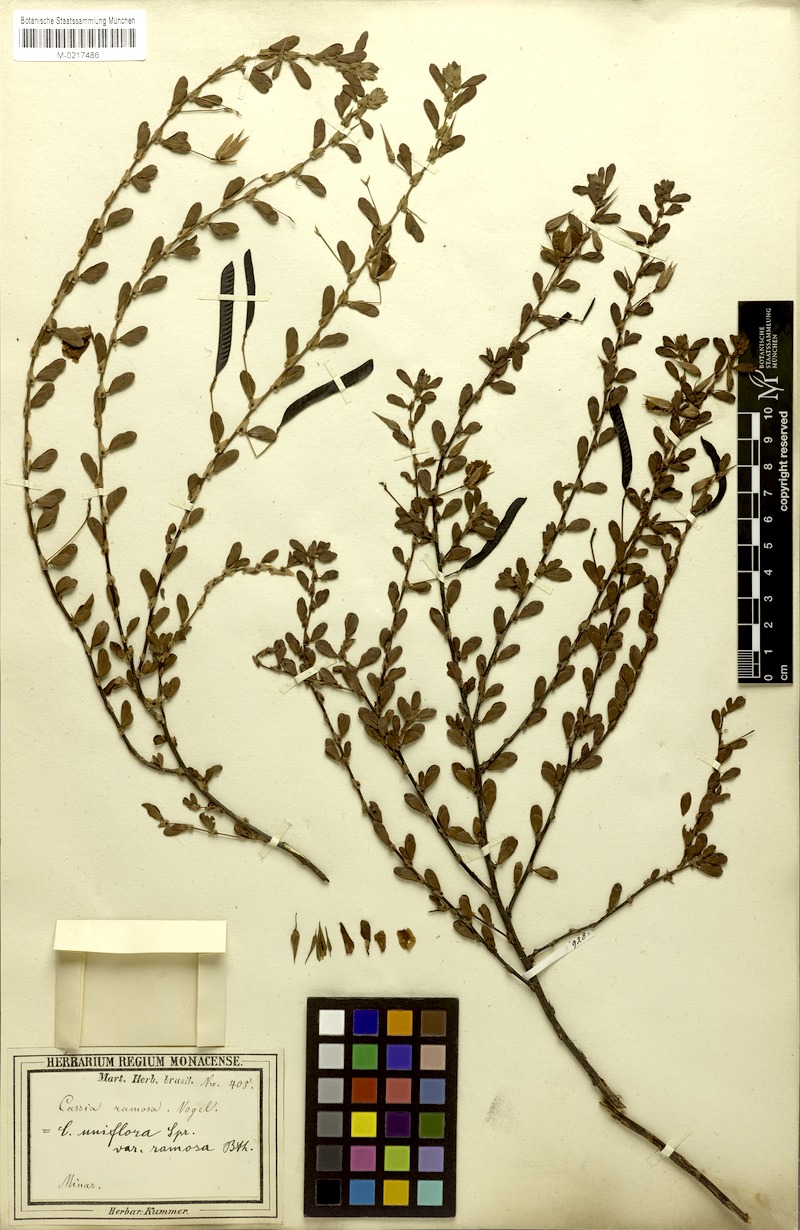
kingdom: Plantae
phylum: Tracheophyta
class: Magnoliopsida
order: Fabales
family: Fabaceae
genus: Chamaecrista
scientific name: Chamaecrista ramosa
